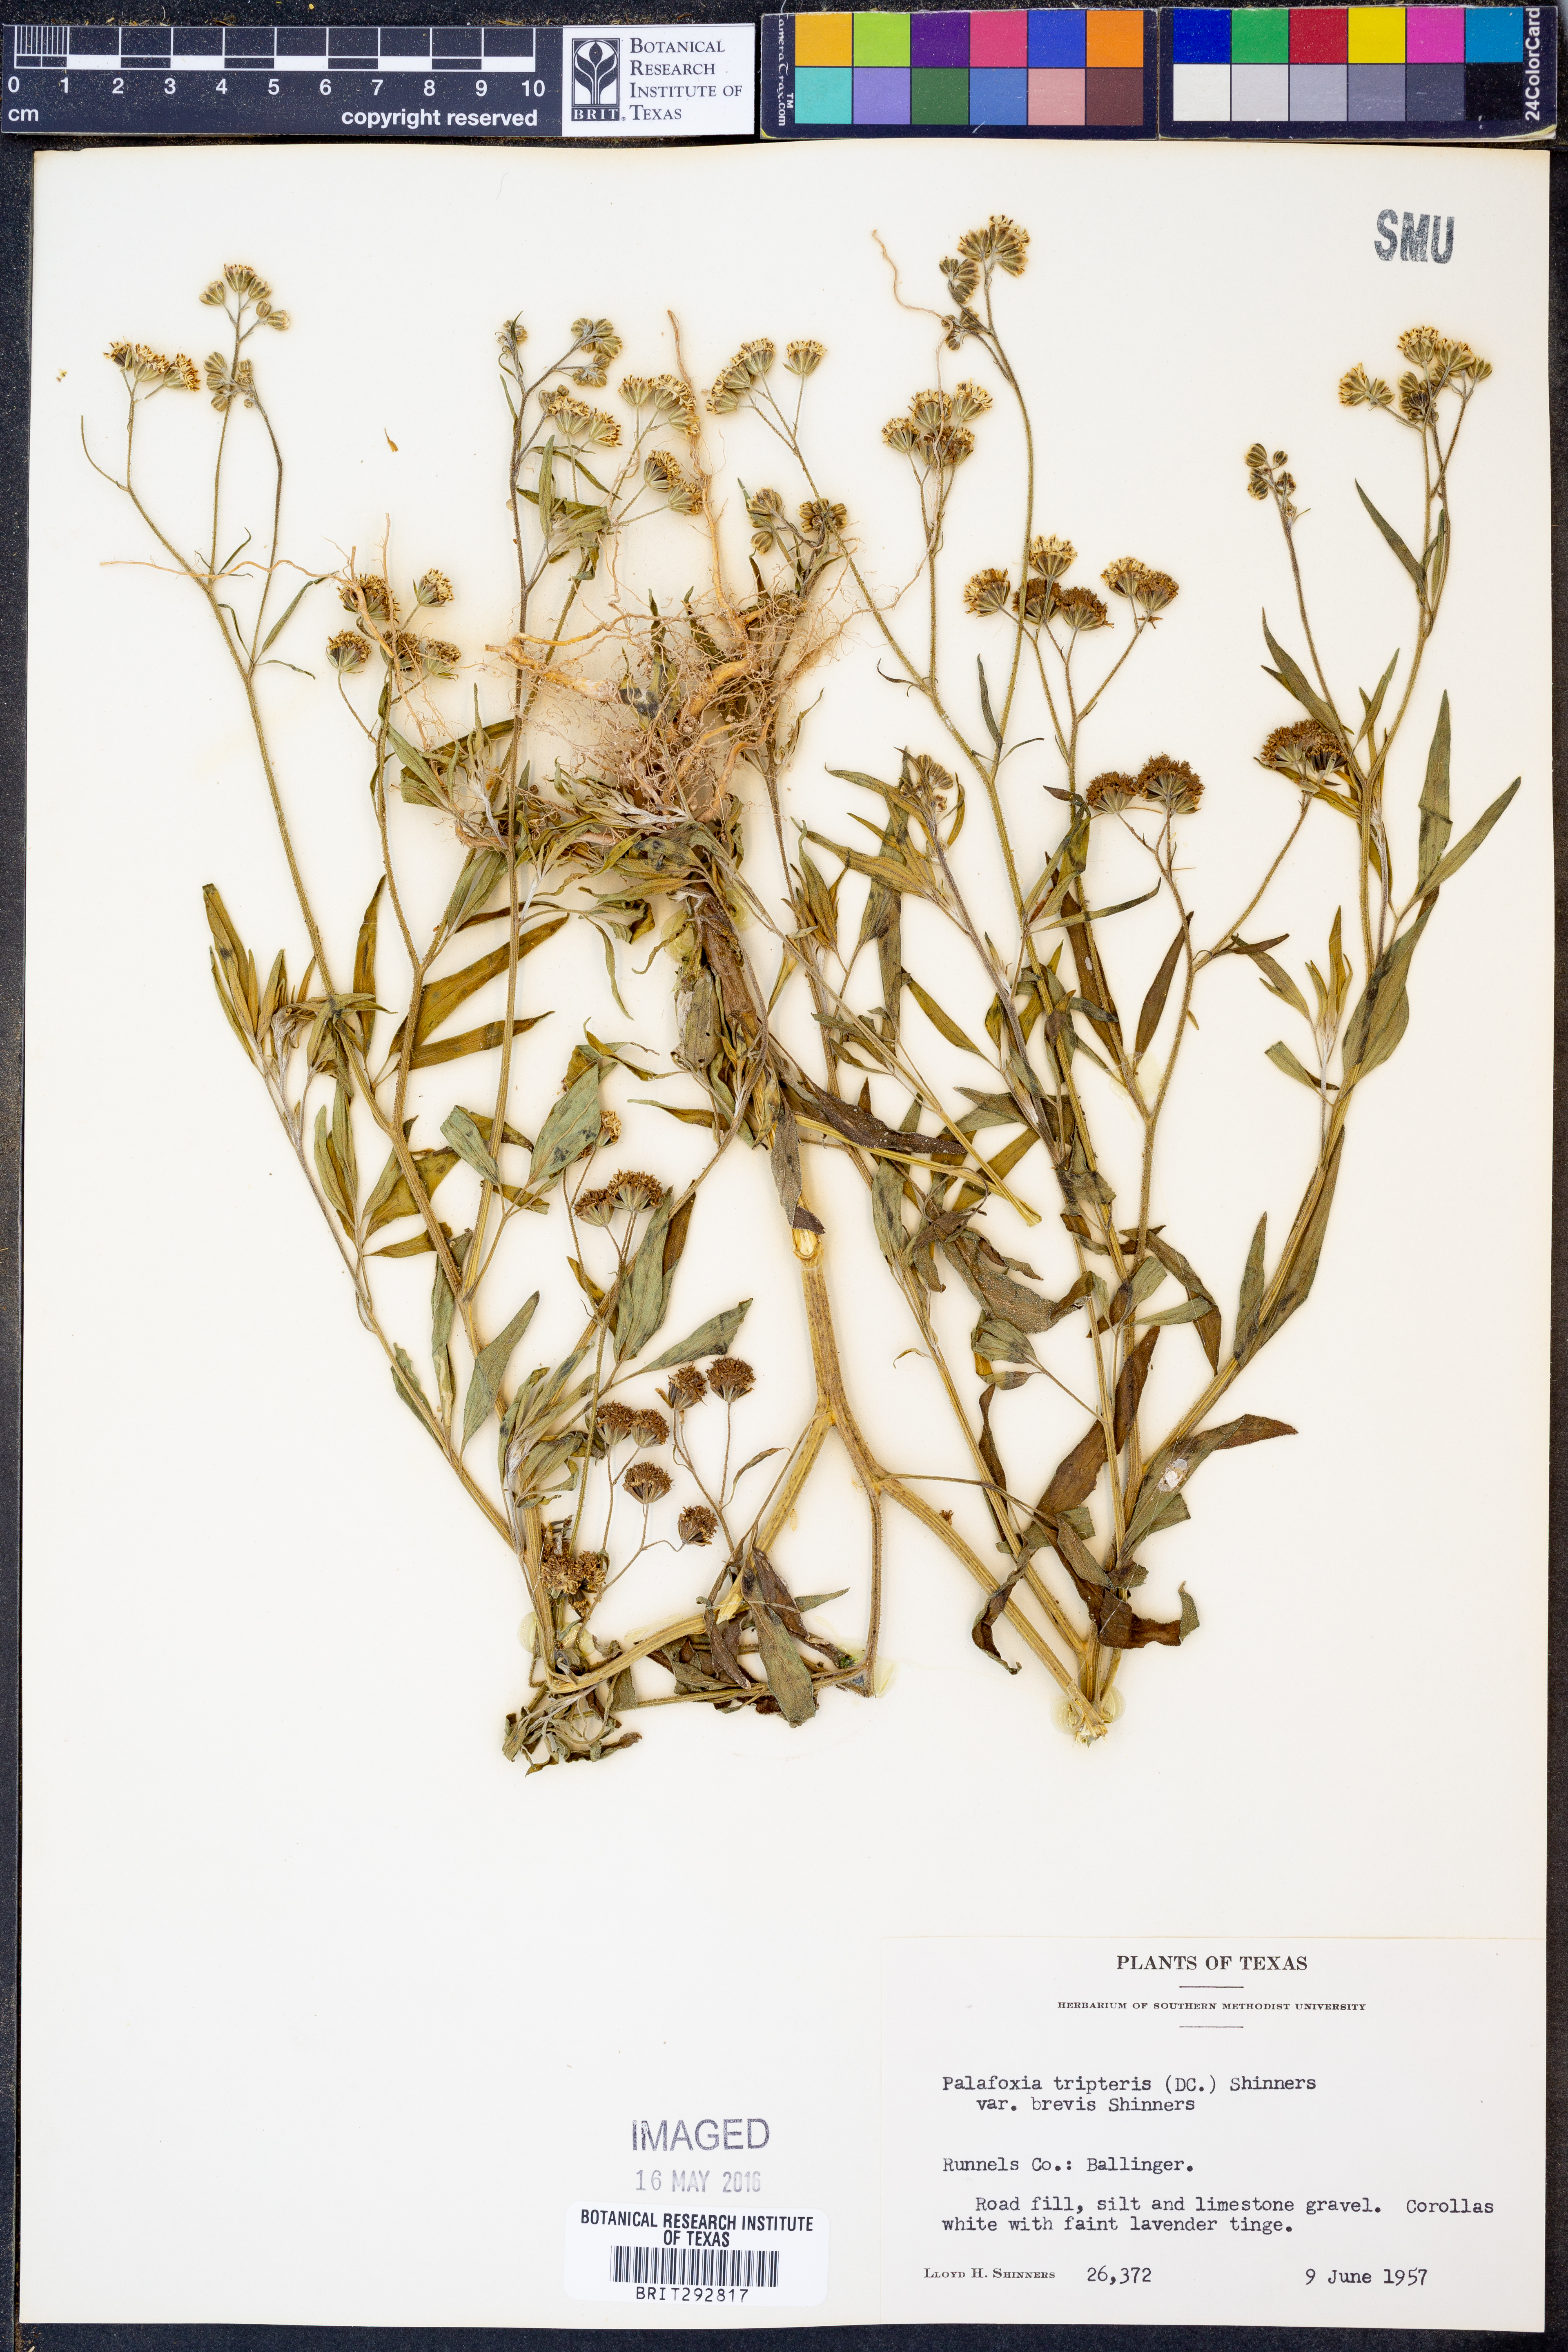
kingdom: Plantae
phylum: Tracheophyta
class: Magnoliopsida
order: Asterales
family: Asteraceae
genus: Florestina
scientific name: Florestina tripteris
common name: Sticky florestina
